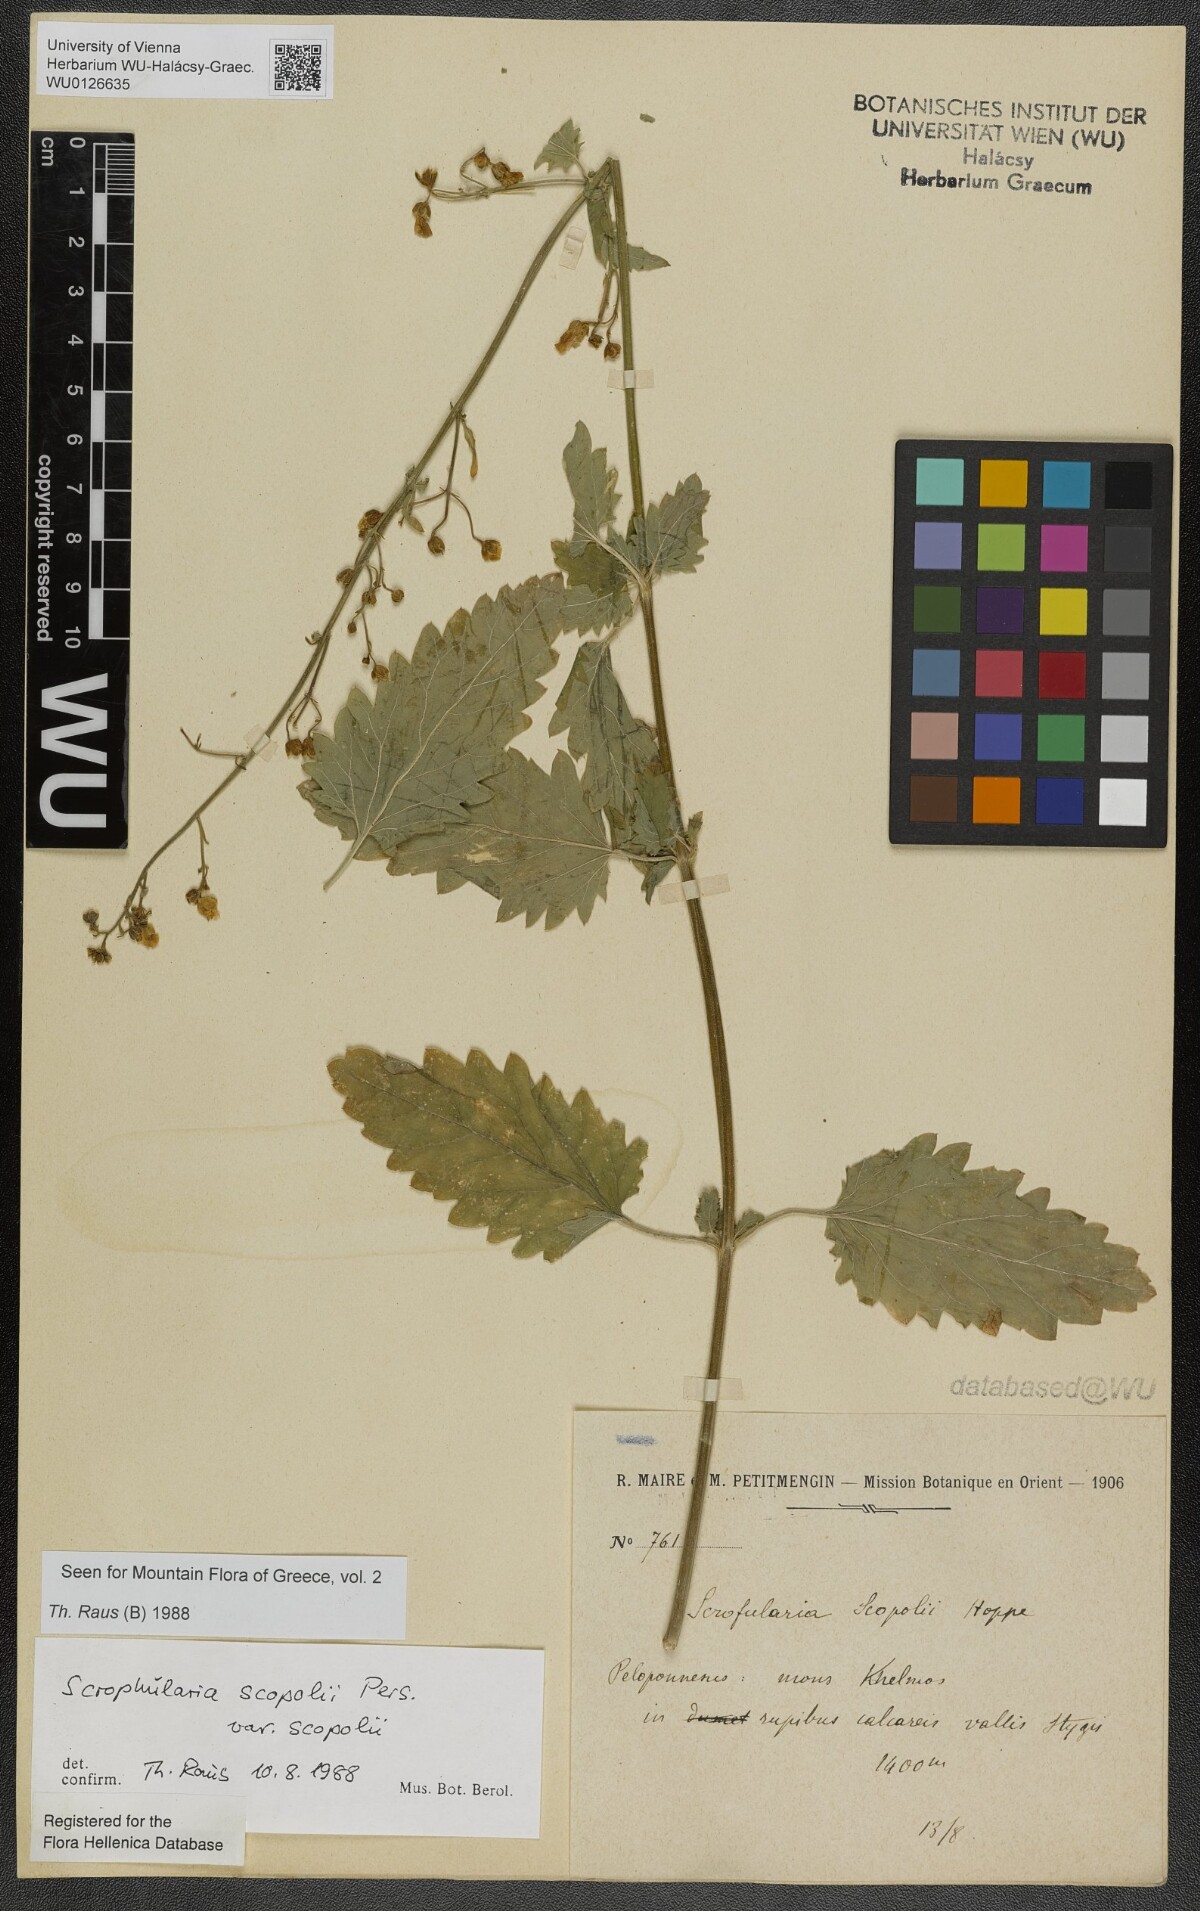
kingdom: Plantae
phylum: Tracheophyta
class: Magnoliopsida
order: Lamiales
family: Scrophulariaceae
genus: Scrophularia
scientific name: Scrophularia scopolii
